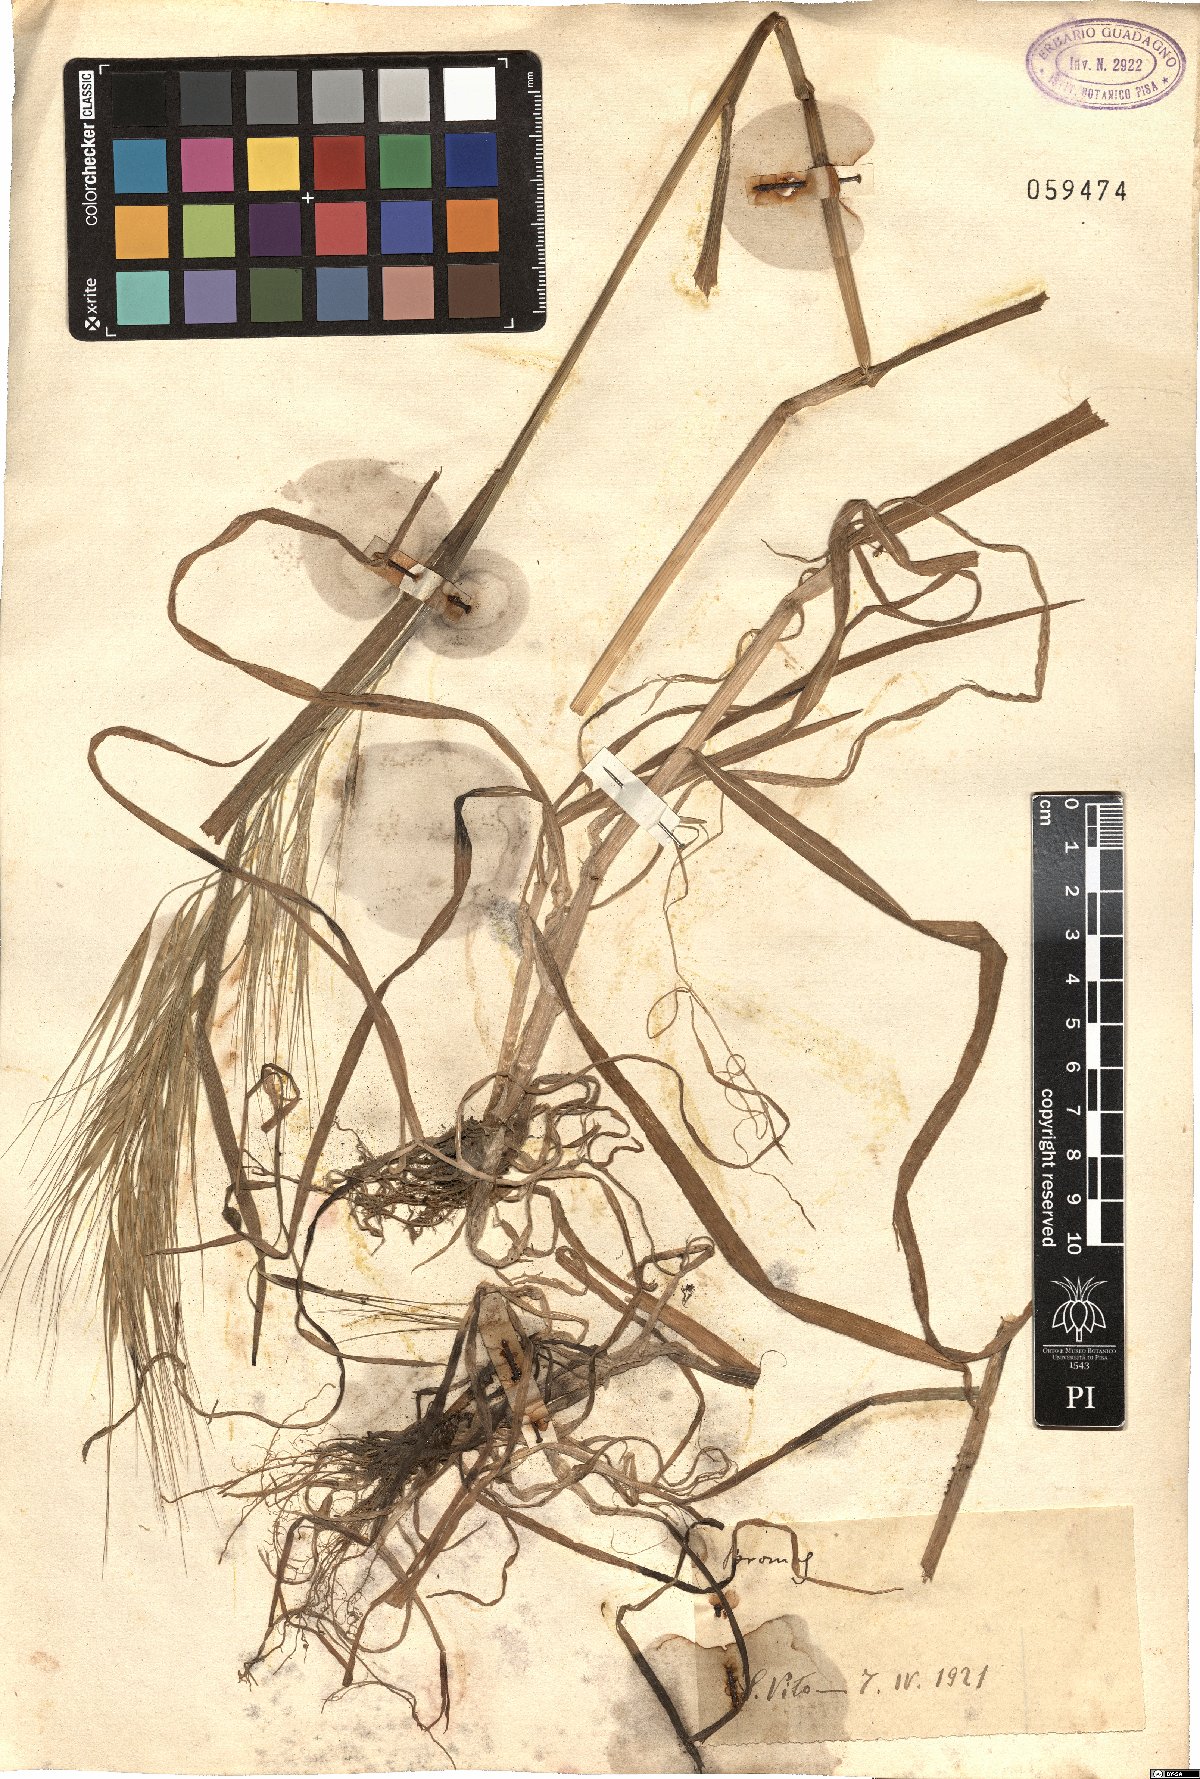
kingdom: Plantae
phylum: Tracheophyta
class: Liliopsida
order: Poales
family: Poaceae
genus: Bromus
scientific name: Bromus
